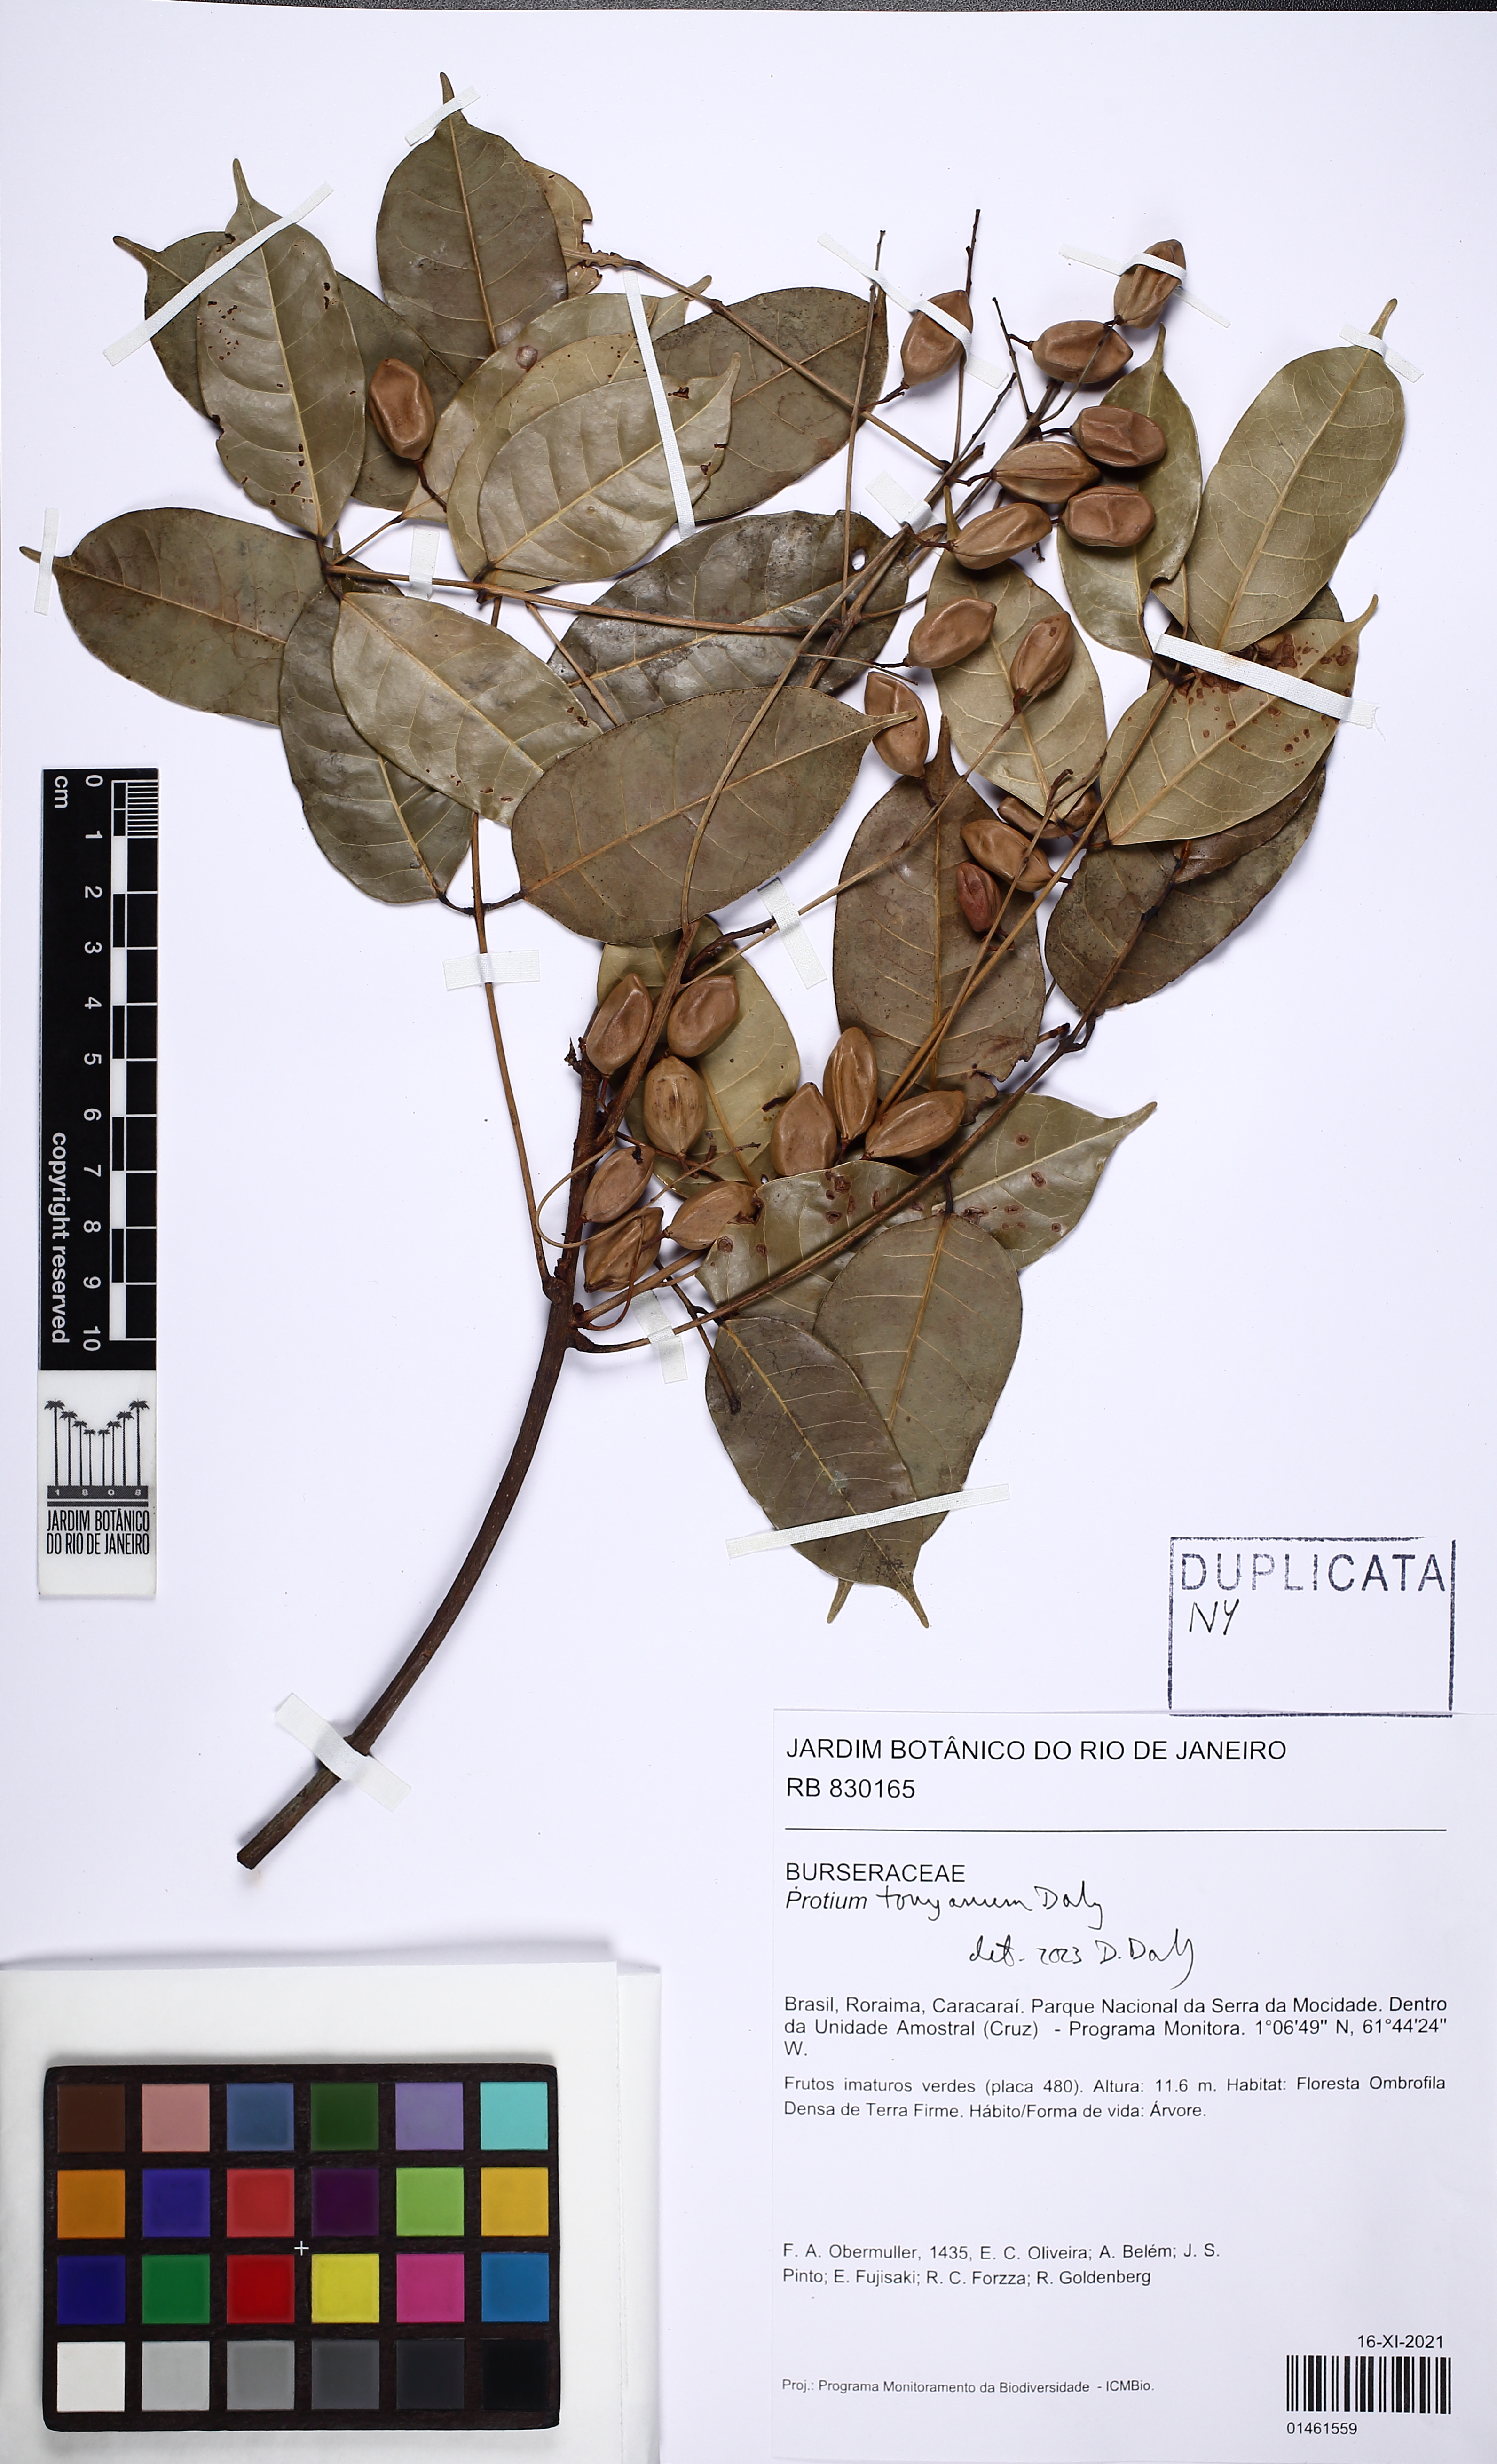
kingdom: Plantae
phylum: Tracheophyta
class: Magnoliopsida
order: Sapindales
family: Burseraceae
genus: Protium
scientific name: Protium tonyanum
